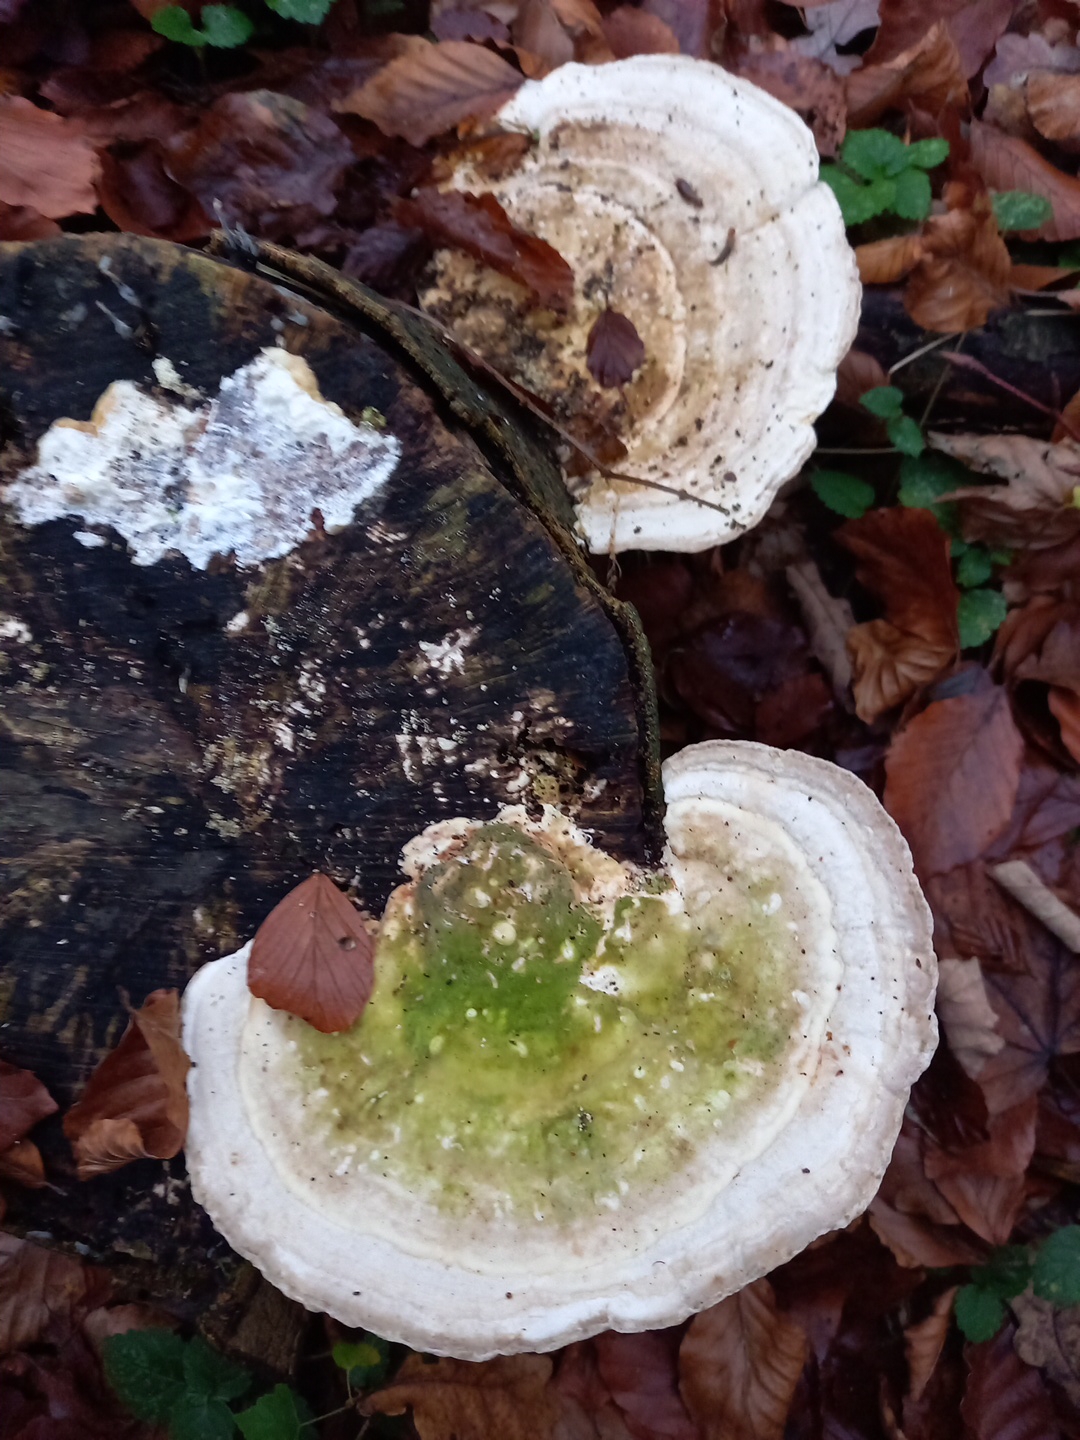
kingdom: Fungi
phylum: Basidiomycota
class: Agaricomycetes
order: Polyporales
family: Polyporaceae
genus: Trametes
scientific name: Trametes gibbosa
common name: puklet læderporesvamp
